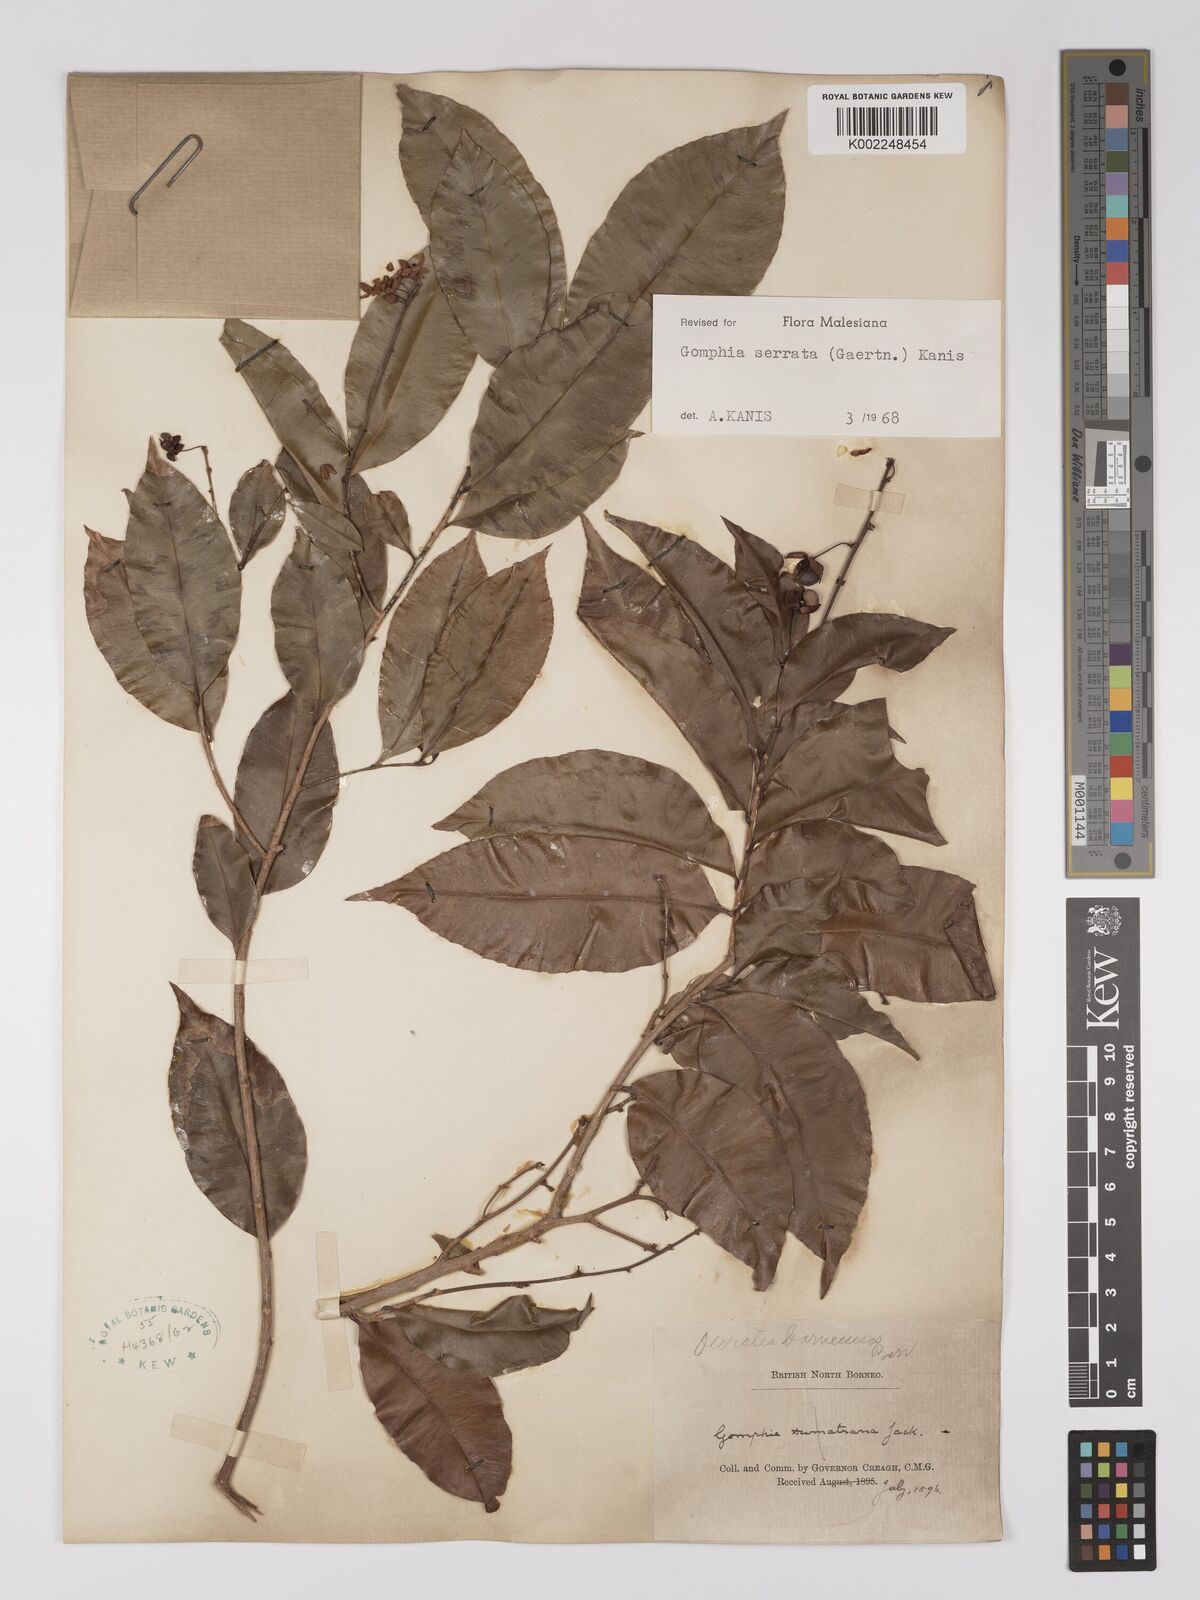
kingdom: Plantae
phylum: Tracheophyta
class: Magnoliopsida
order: Malpighiales
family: Ochnaceae
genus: Gomphia
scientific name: Gomphia serrata
